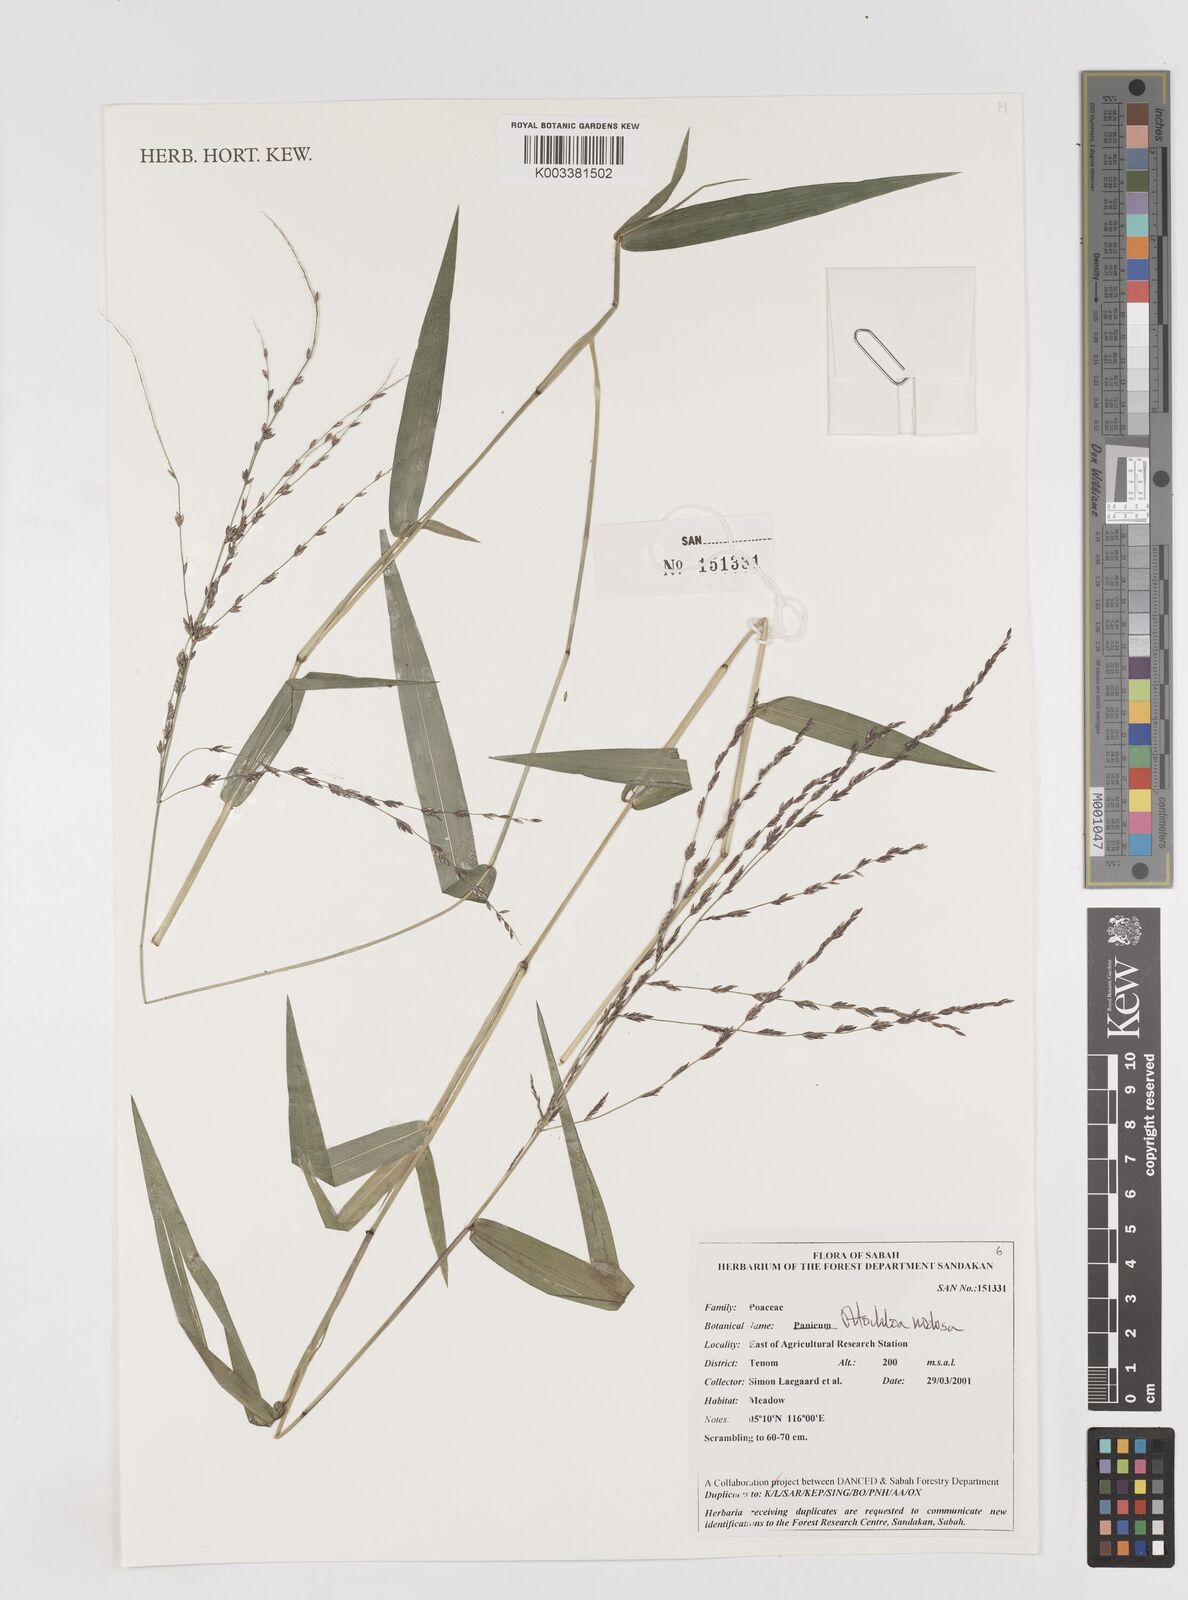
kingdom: Plantae
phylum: Tracheophyta
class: Liliopsida
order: Poales
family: Poaceae
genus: Ottochloa
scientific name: Ottochloa nodosa
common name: Slender-panic grass
